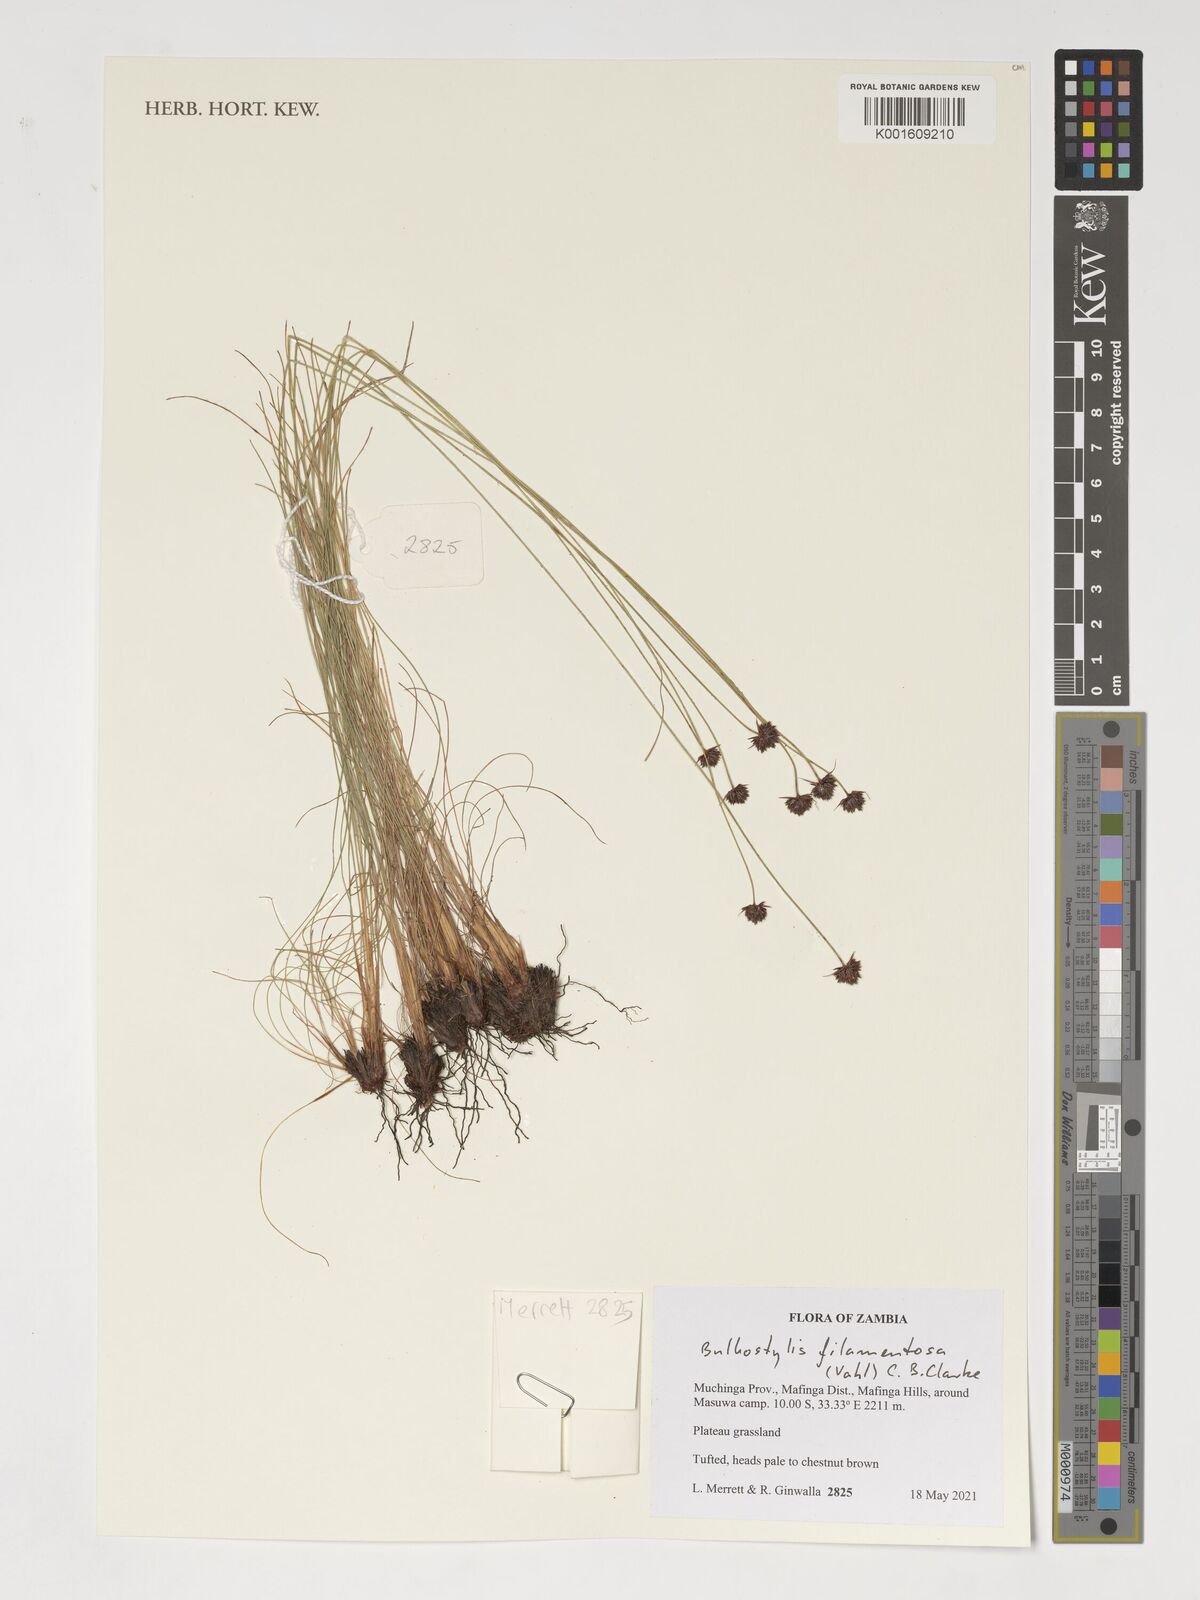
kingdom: Plantae
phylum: Tracheophyta
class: Liliopsida
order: Poales
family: Cyperaceae
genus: Bulbostylis
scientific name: Bulbostylis filamentosa
